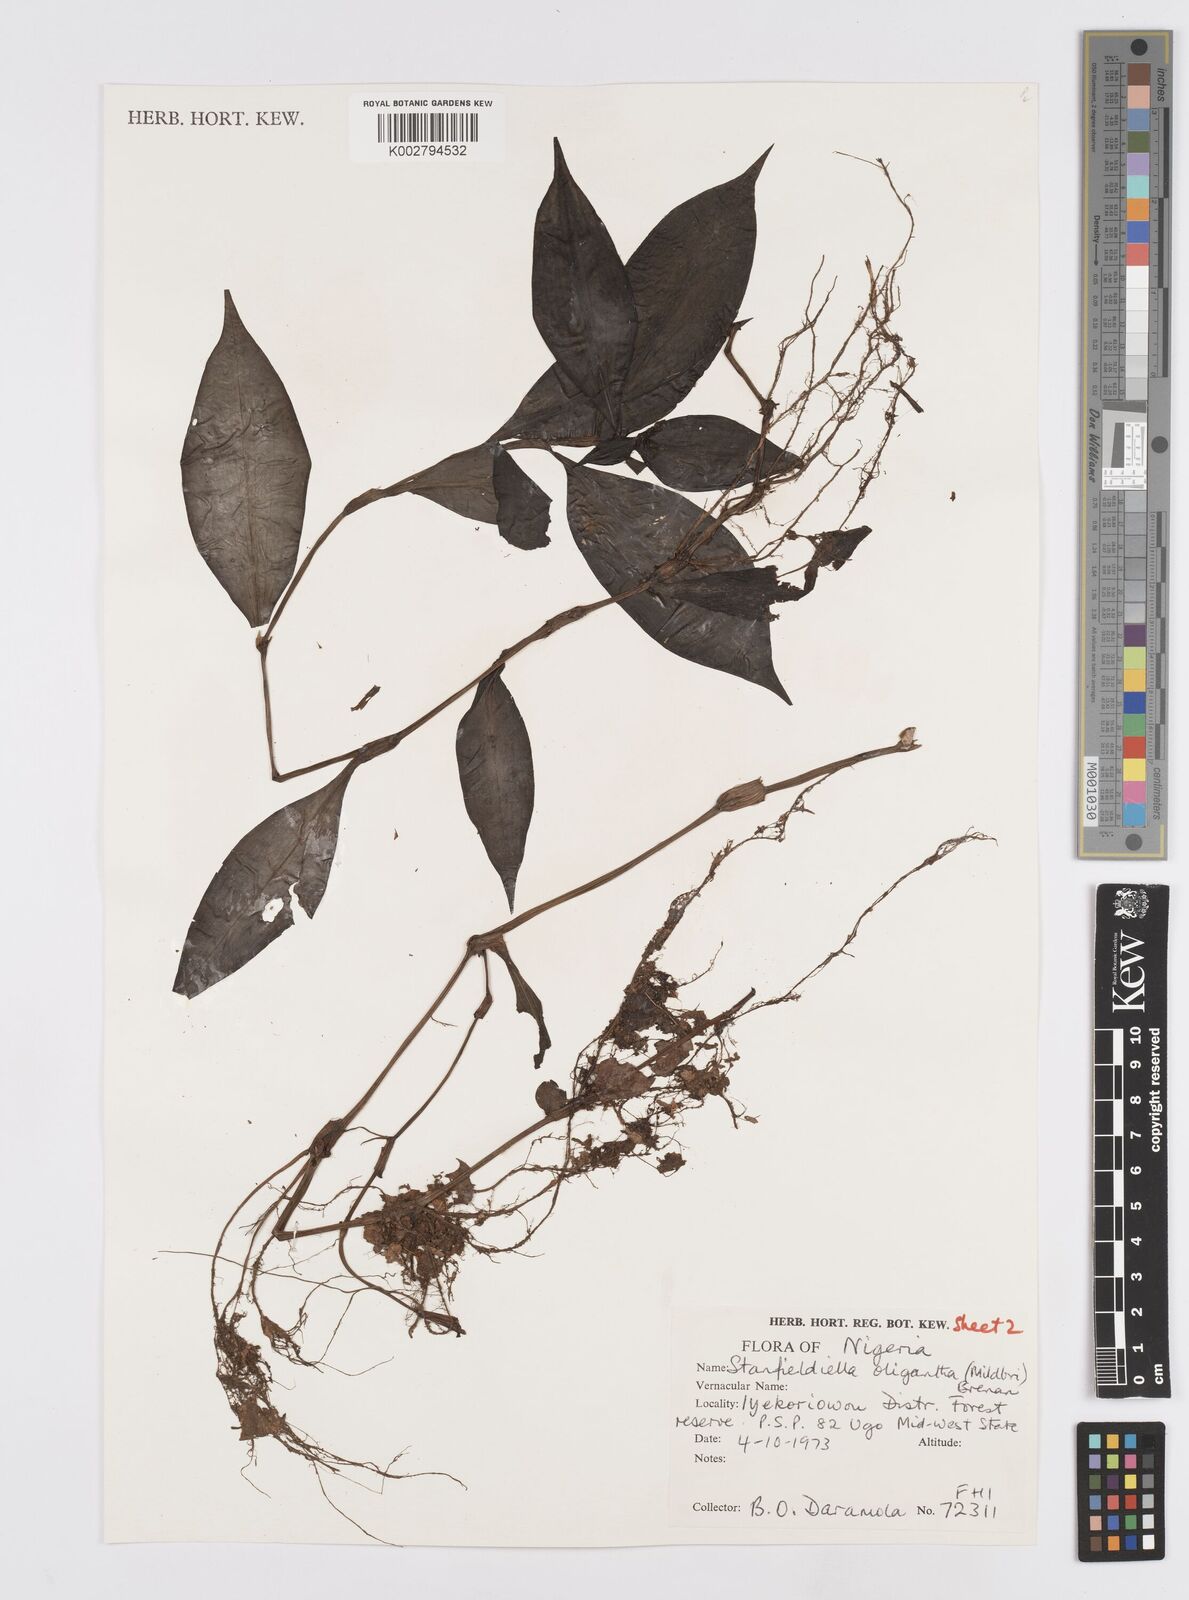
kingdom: Plantae
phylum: Tracheophyta
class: Liliopsida
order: Commelinales
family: Commelinaceae
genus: Stanfieldiella
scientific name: Stanfieldiella oligantha
